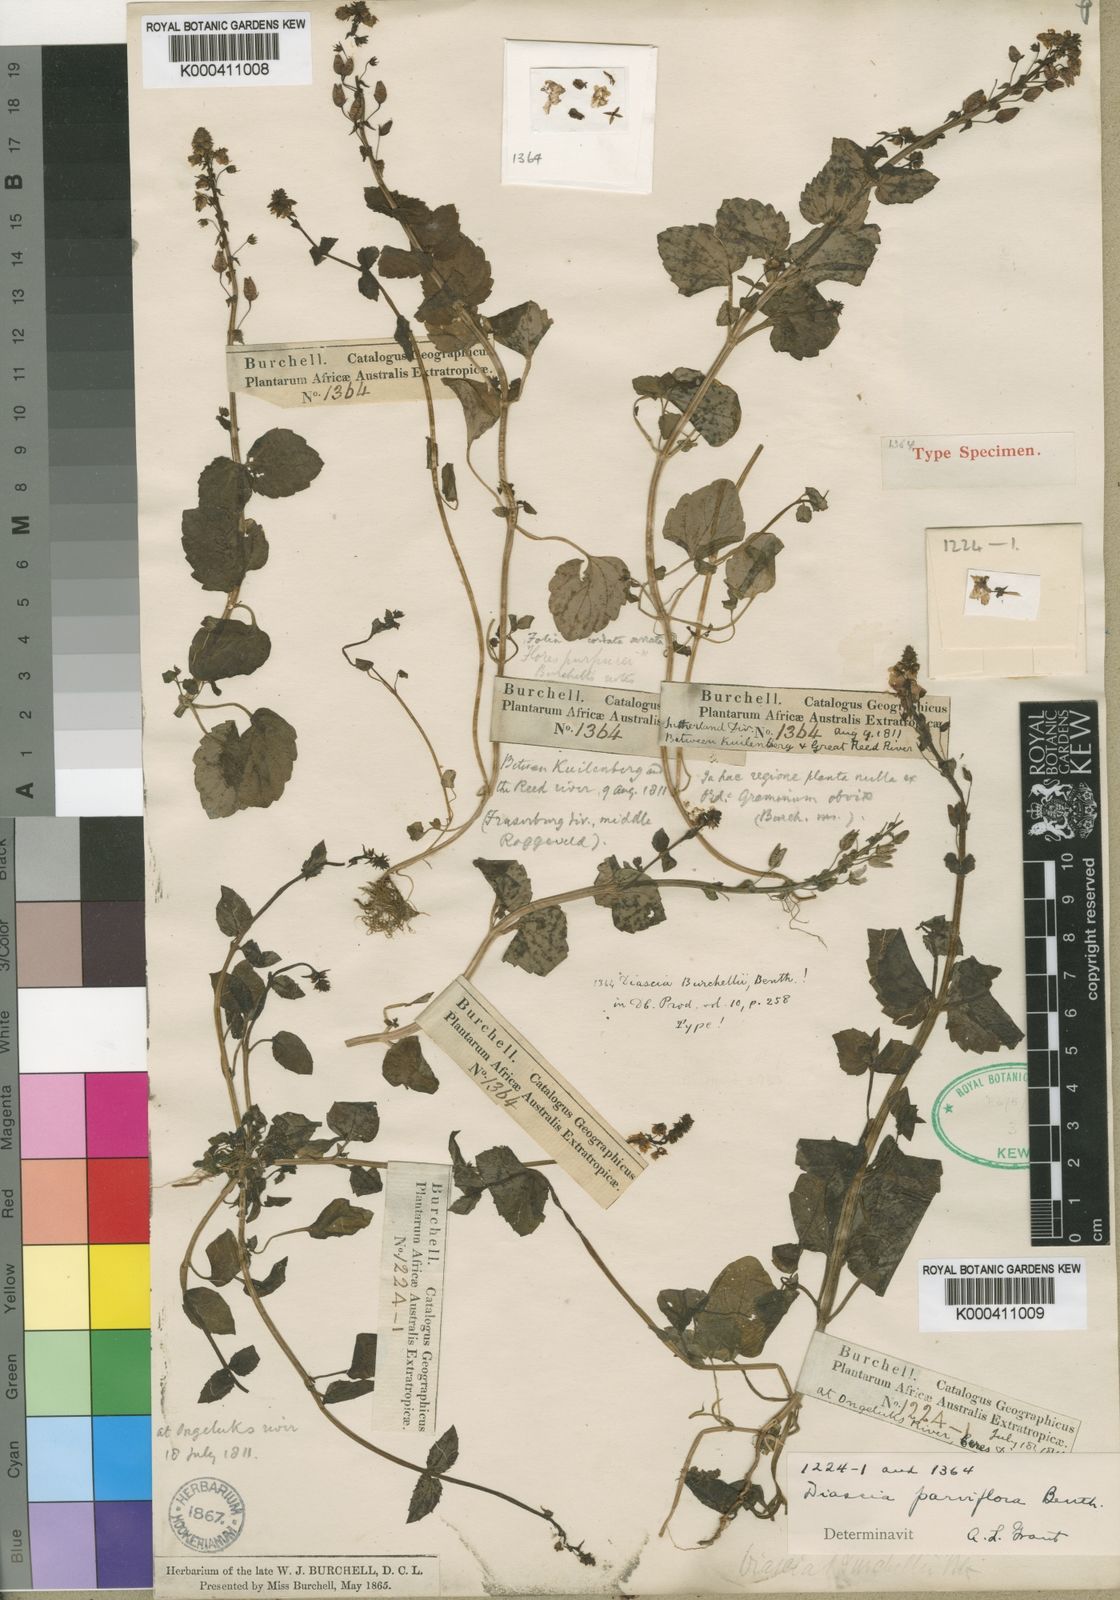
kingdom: Plantae
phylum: Tracheophyta
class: Magnoliopsida
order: Lamiales
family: Scrophulariaceae
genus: Diascia
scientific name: Diascia parviflora
